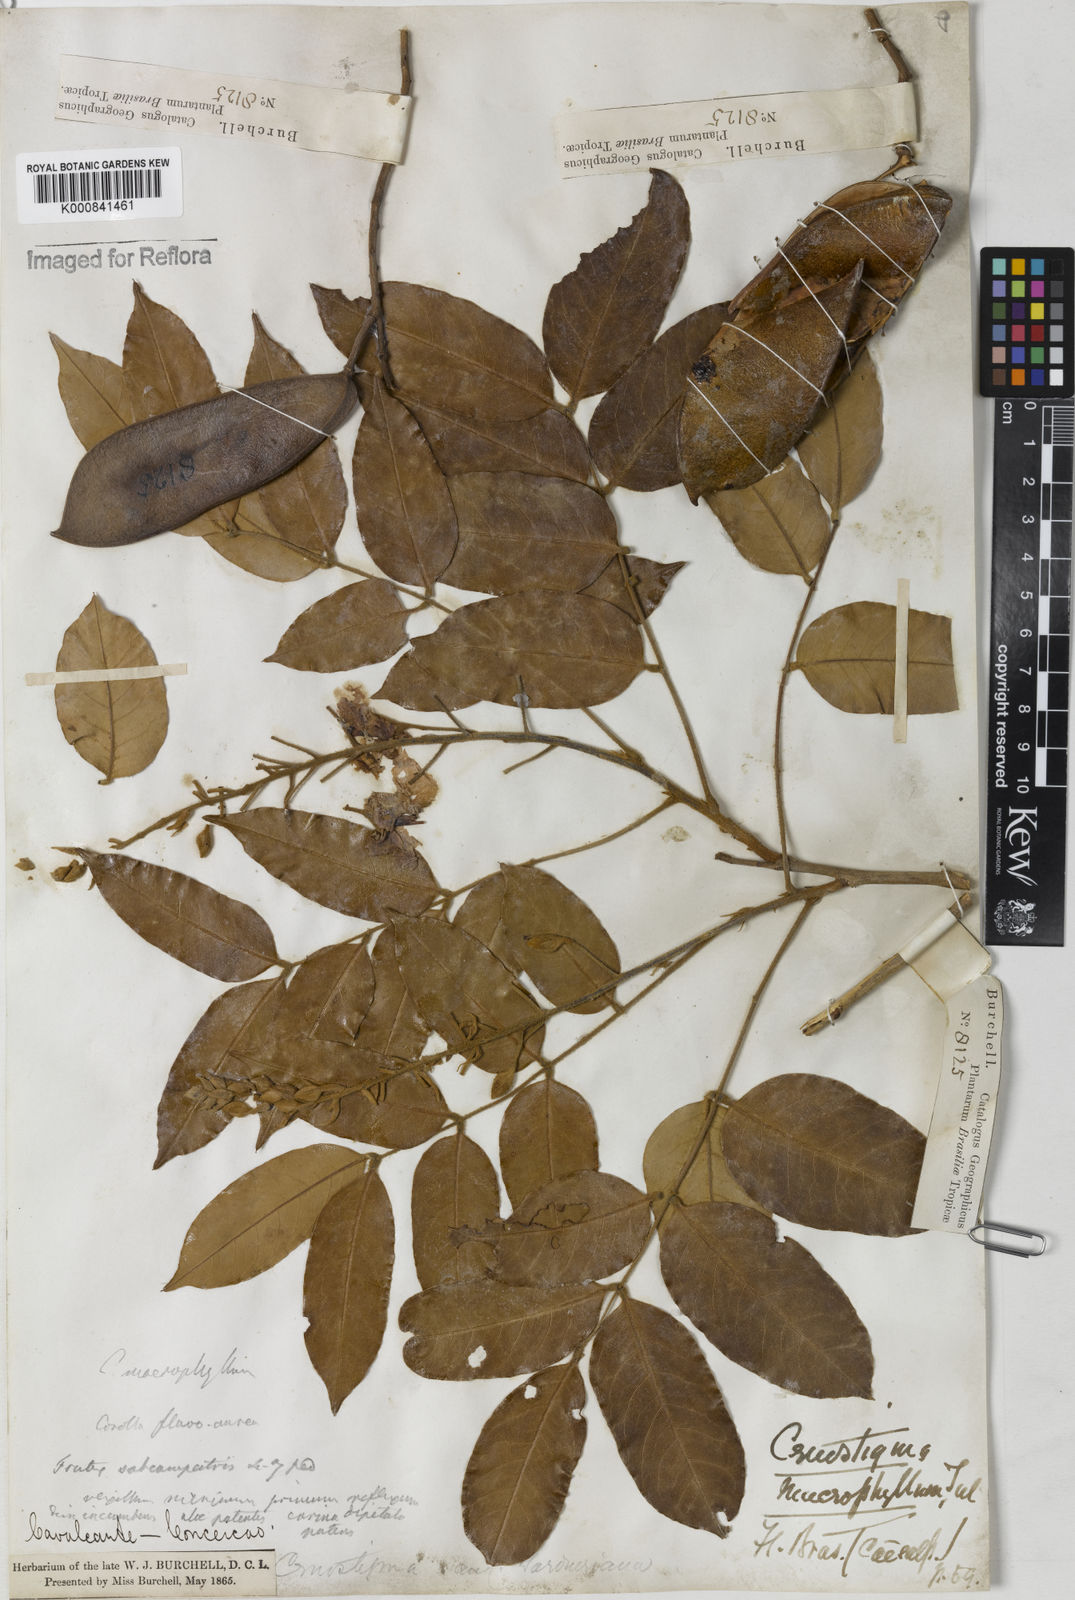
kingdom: Plantae
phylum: Tracheophyta
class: Magnoliopsida
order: Fabales
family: Fabaceae
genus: Cenostigma
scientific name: Cenostigma macrophyllum
